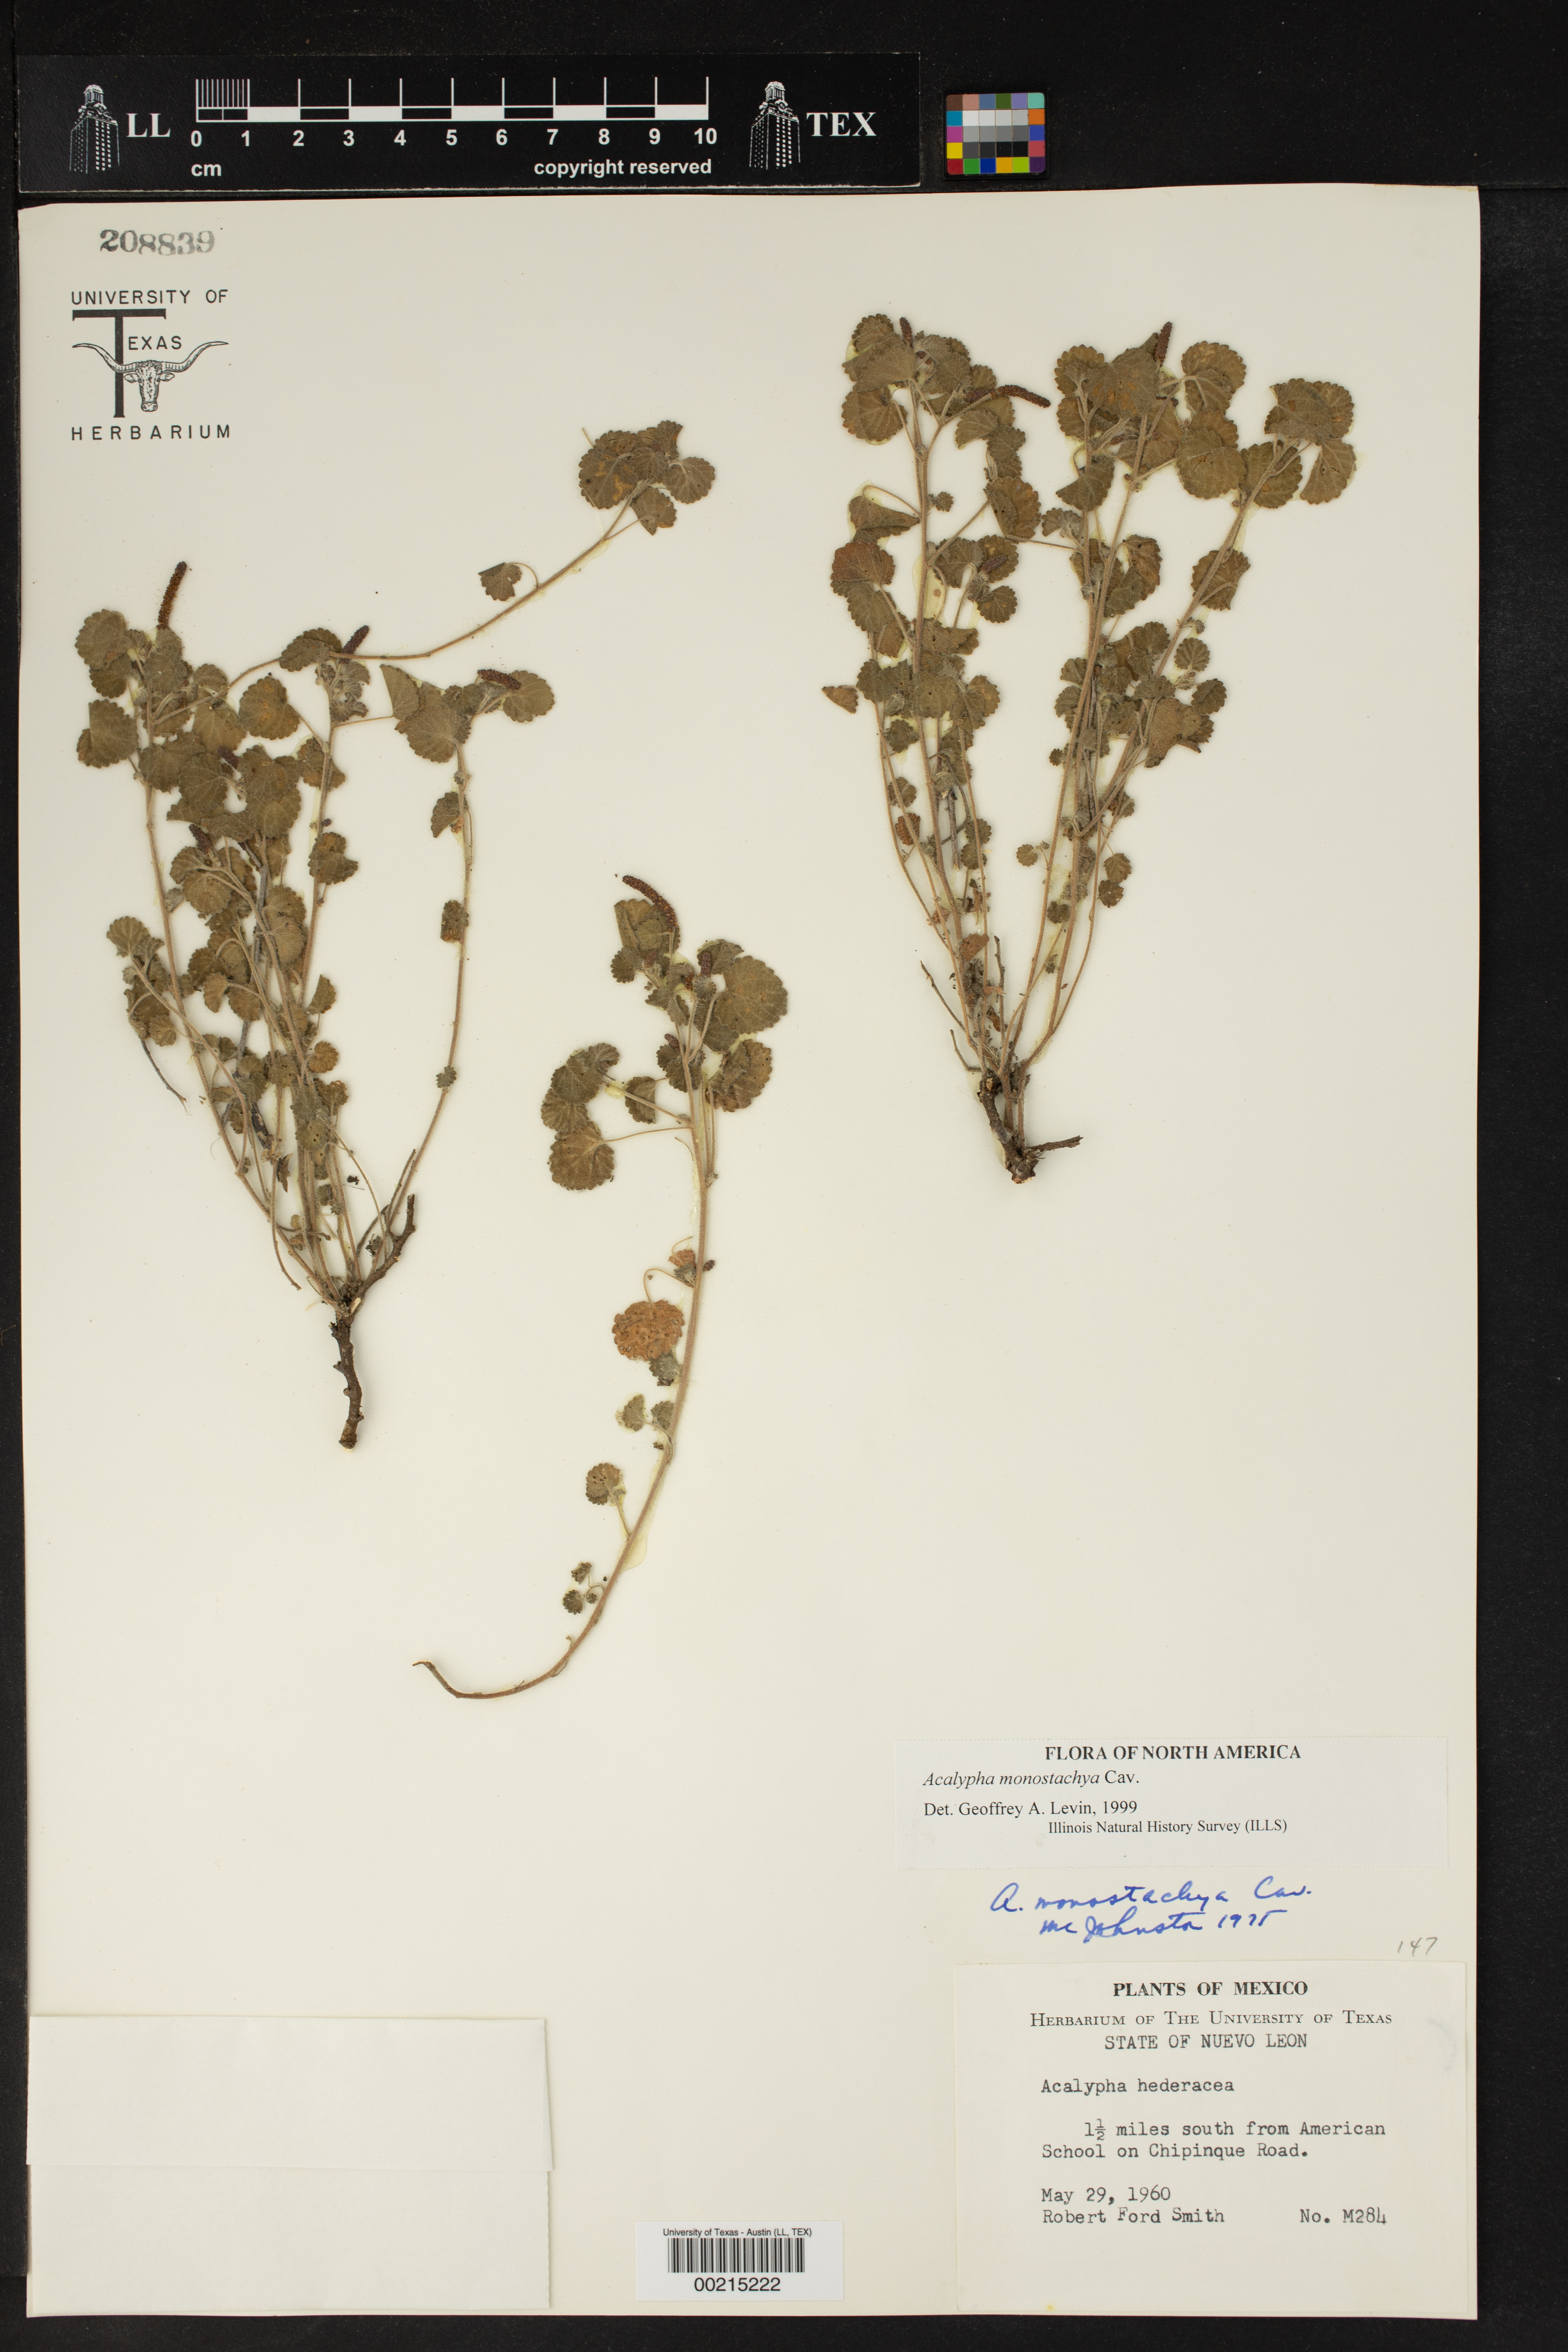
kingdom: Plantae
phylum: Tracheophyta
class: Magnoliopsida
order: Malpighiales
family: Euphorbiaceae
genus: Acalypha
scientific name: Acalypha monostachya
